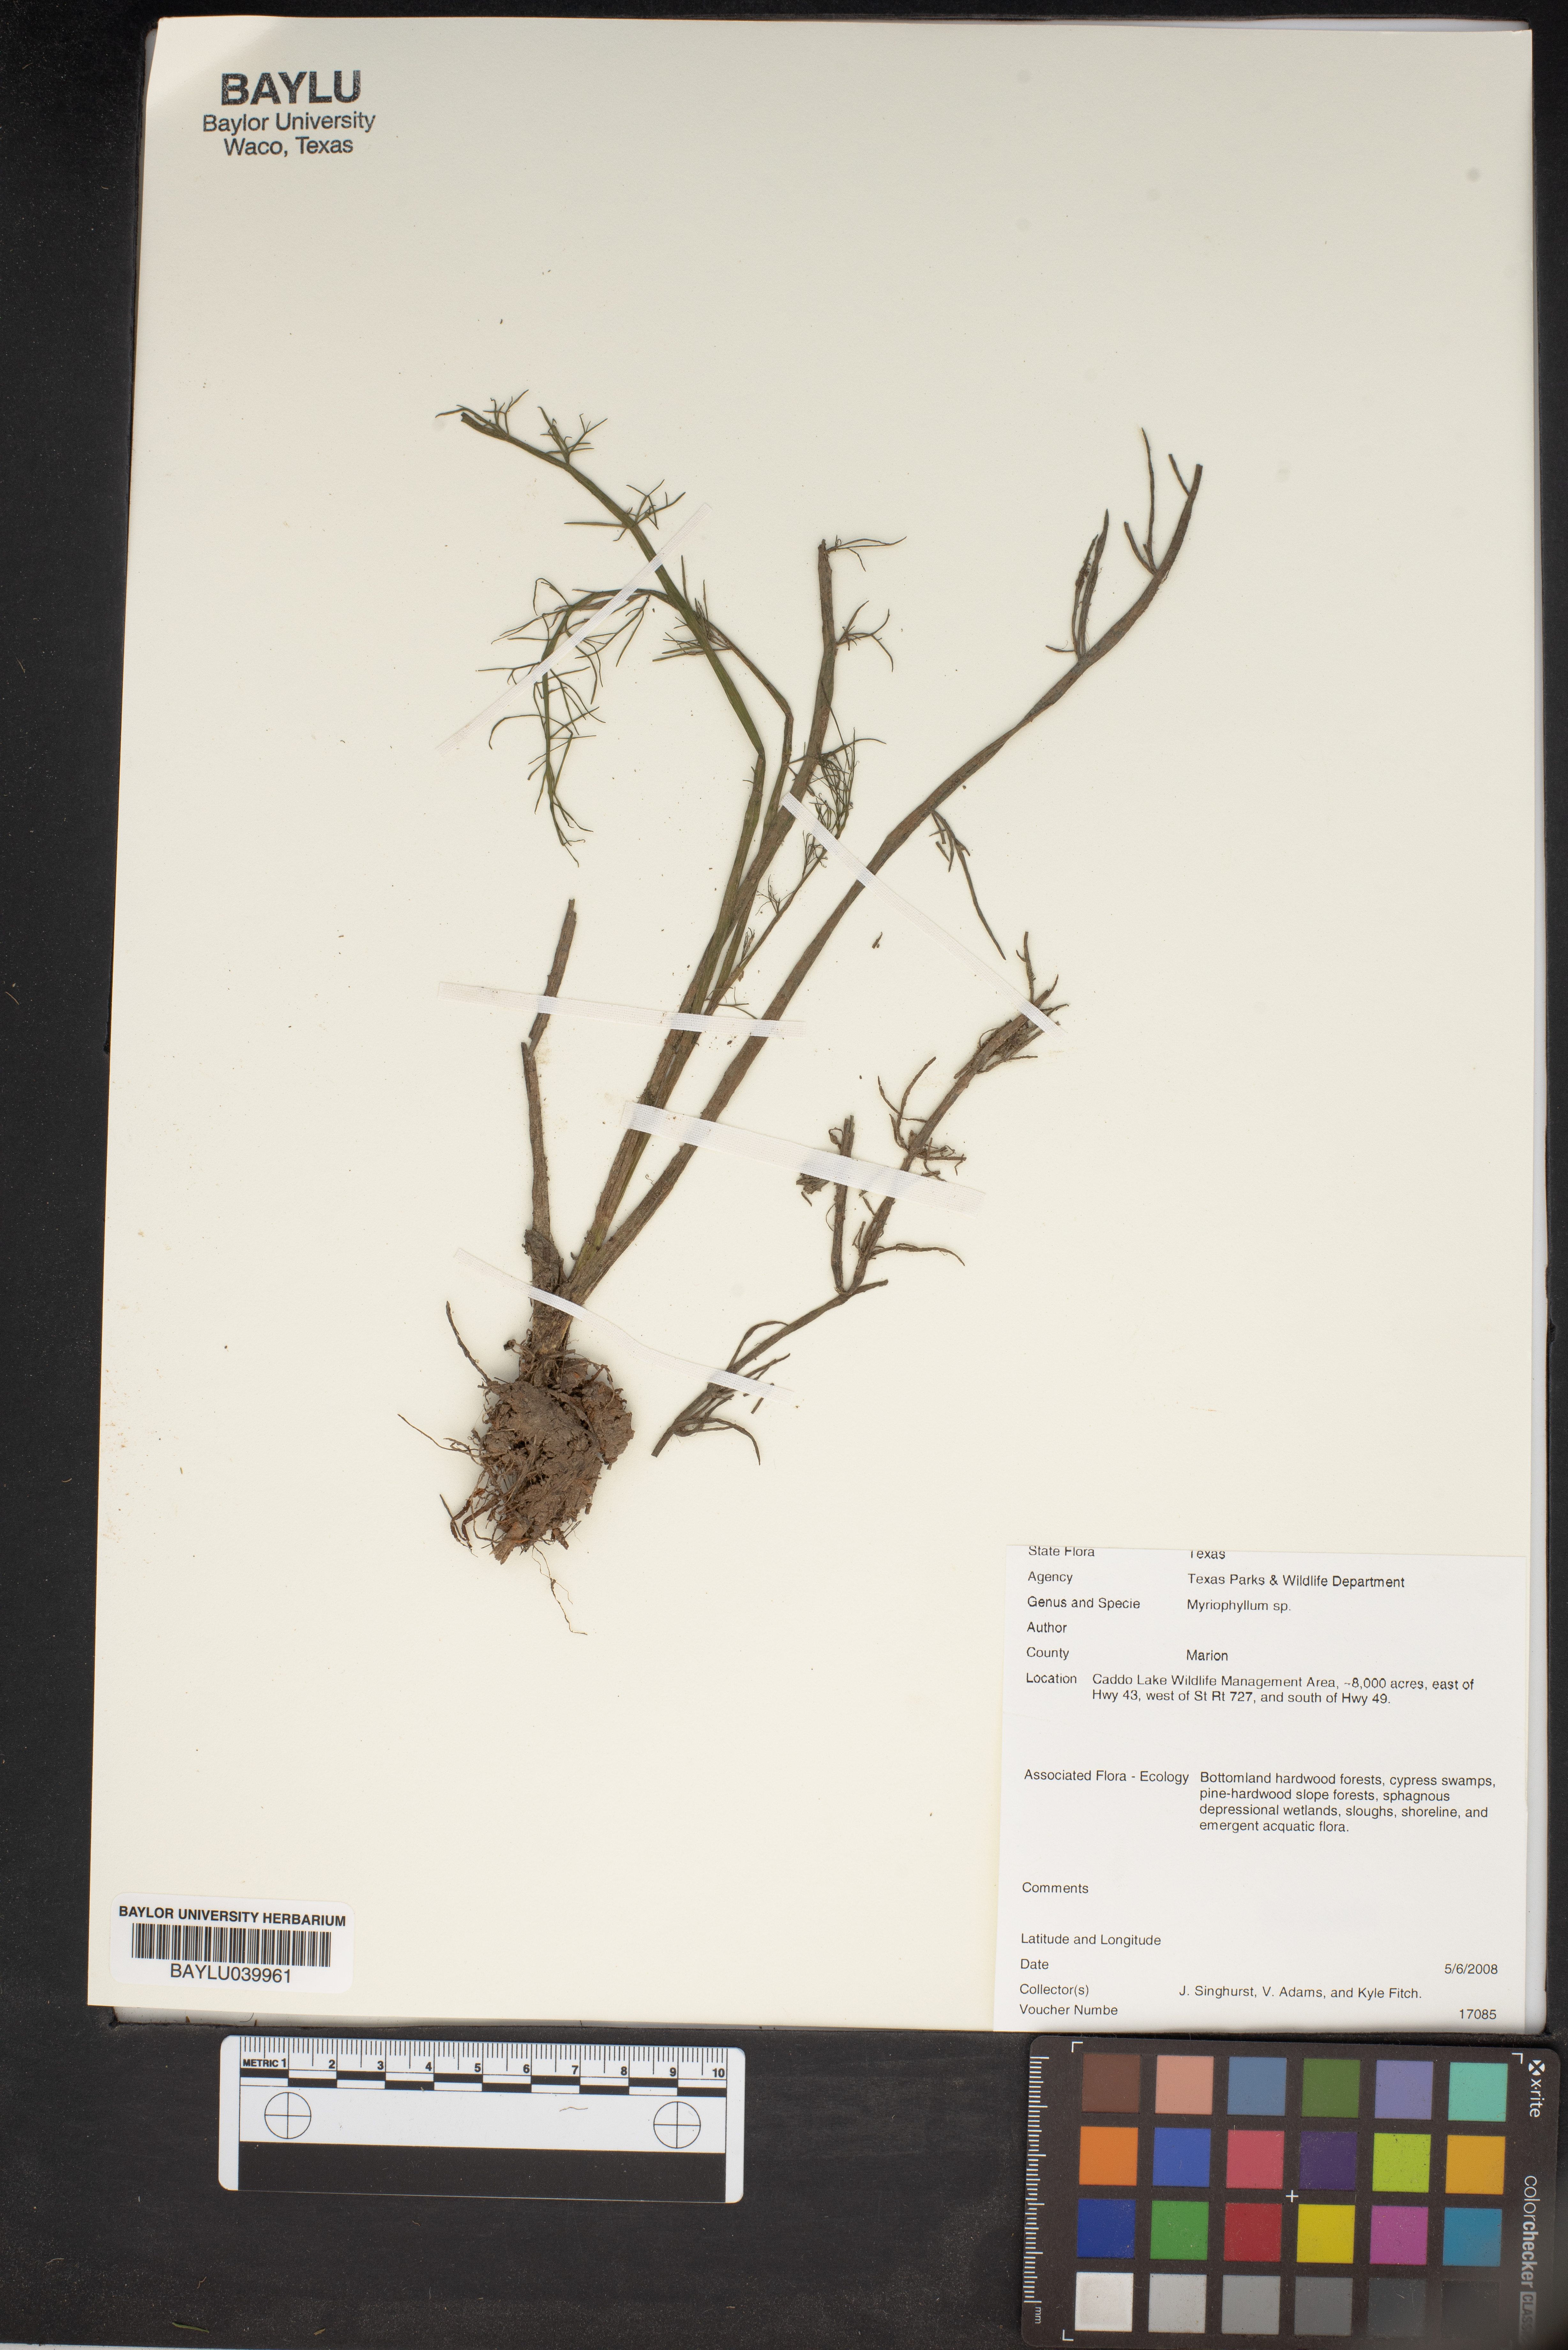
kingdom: Plantae
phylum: Tracheophyta
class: Magnoliopsida
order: Saxifragales
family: Haloragaceae
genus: Myriophyllum
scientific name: Myriophyllum
